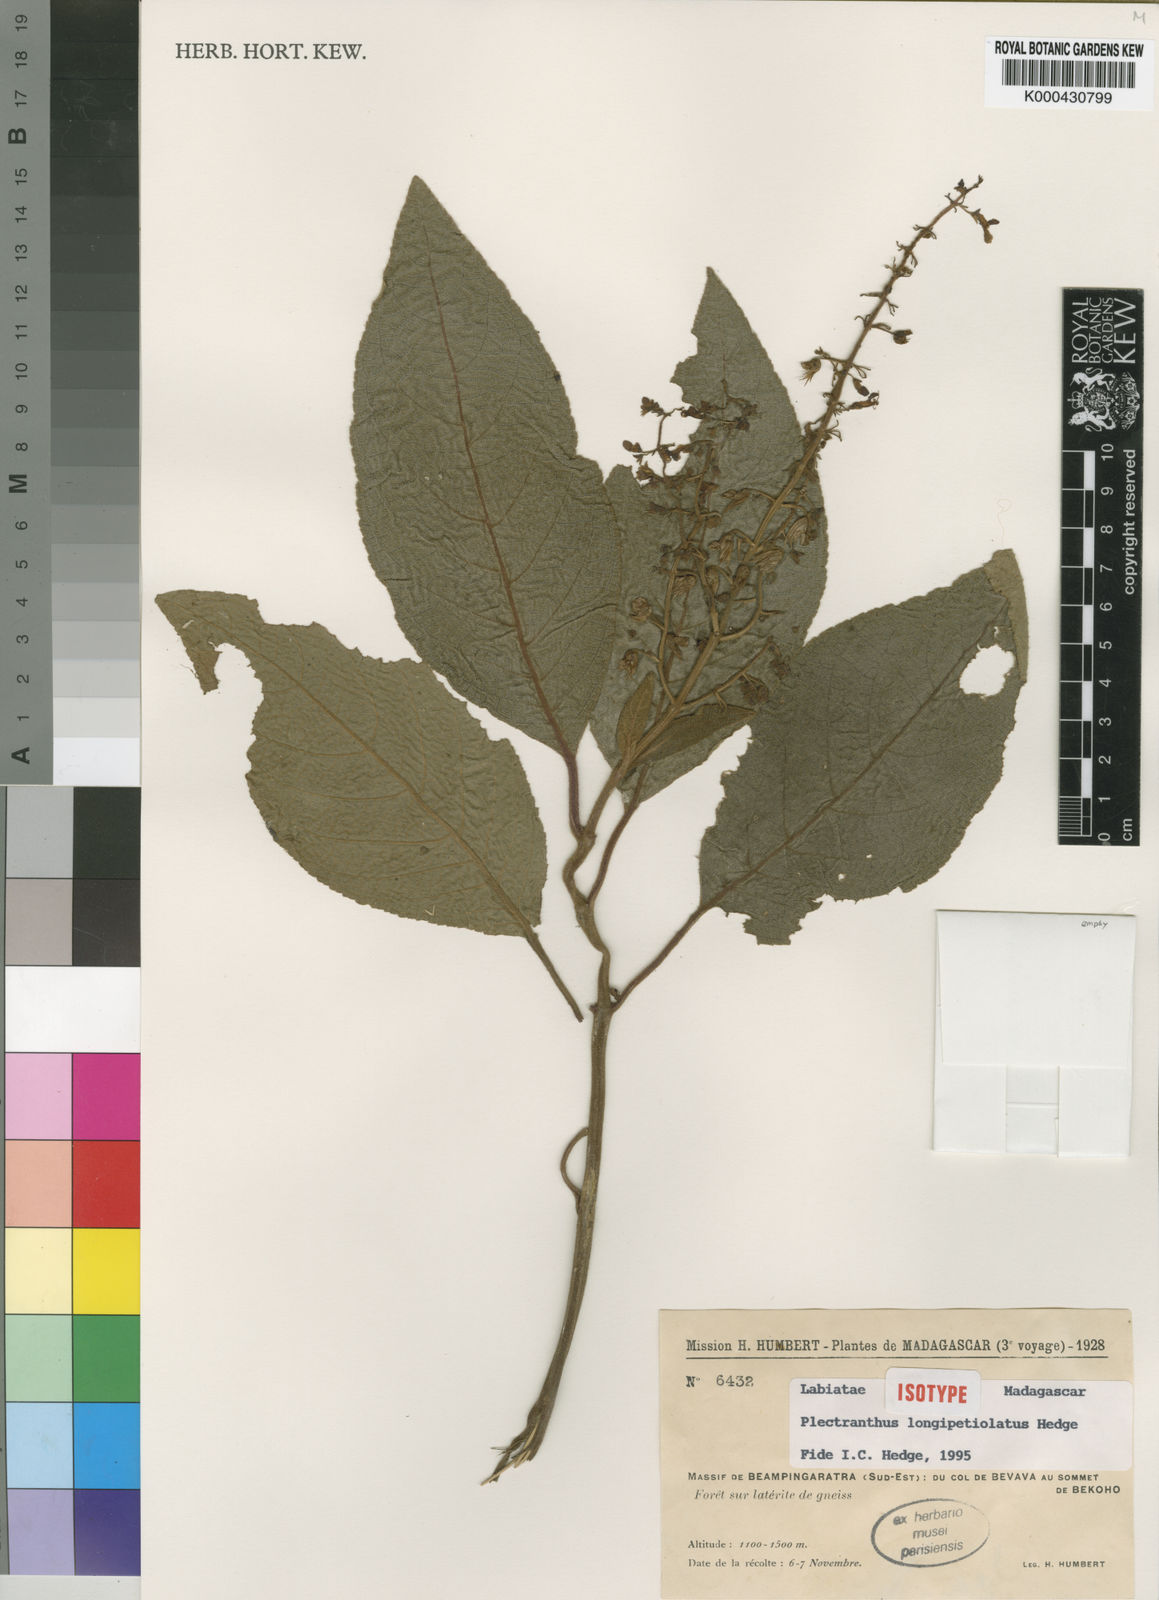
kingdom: Plantae
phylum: Tracheophyta
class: Magnoliopsida
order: Lamiales
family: Lamiaceae
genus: Plectranthus
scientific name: Plectranthus longipetiolatus
